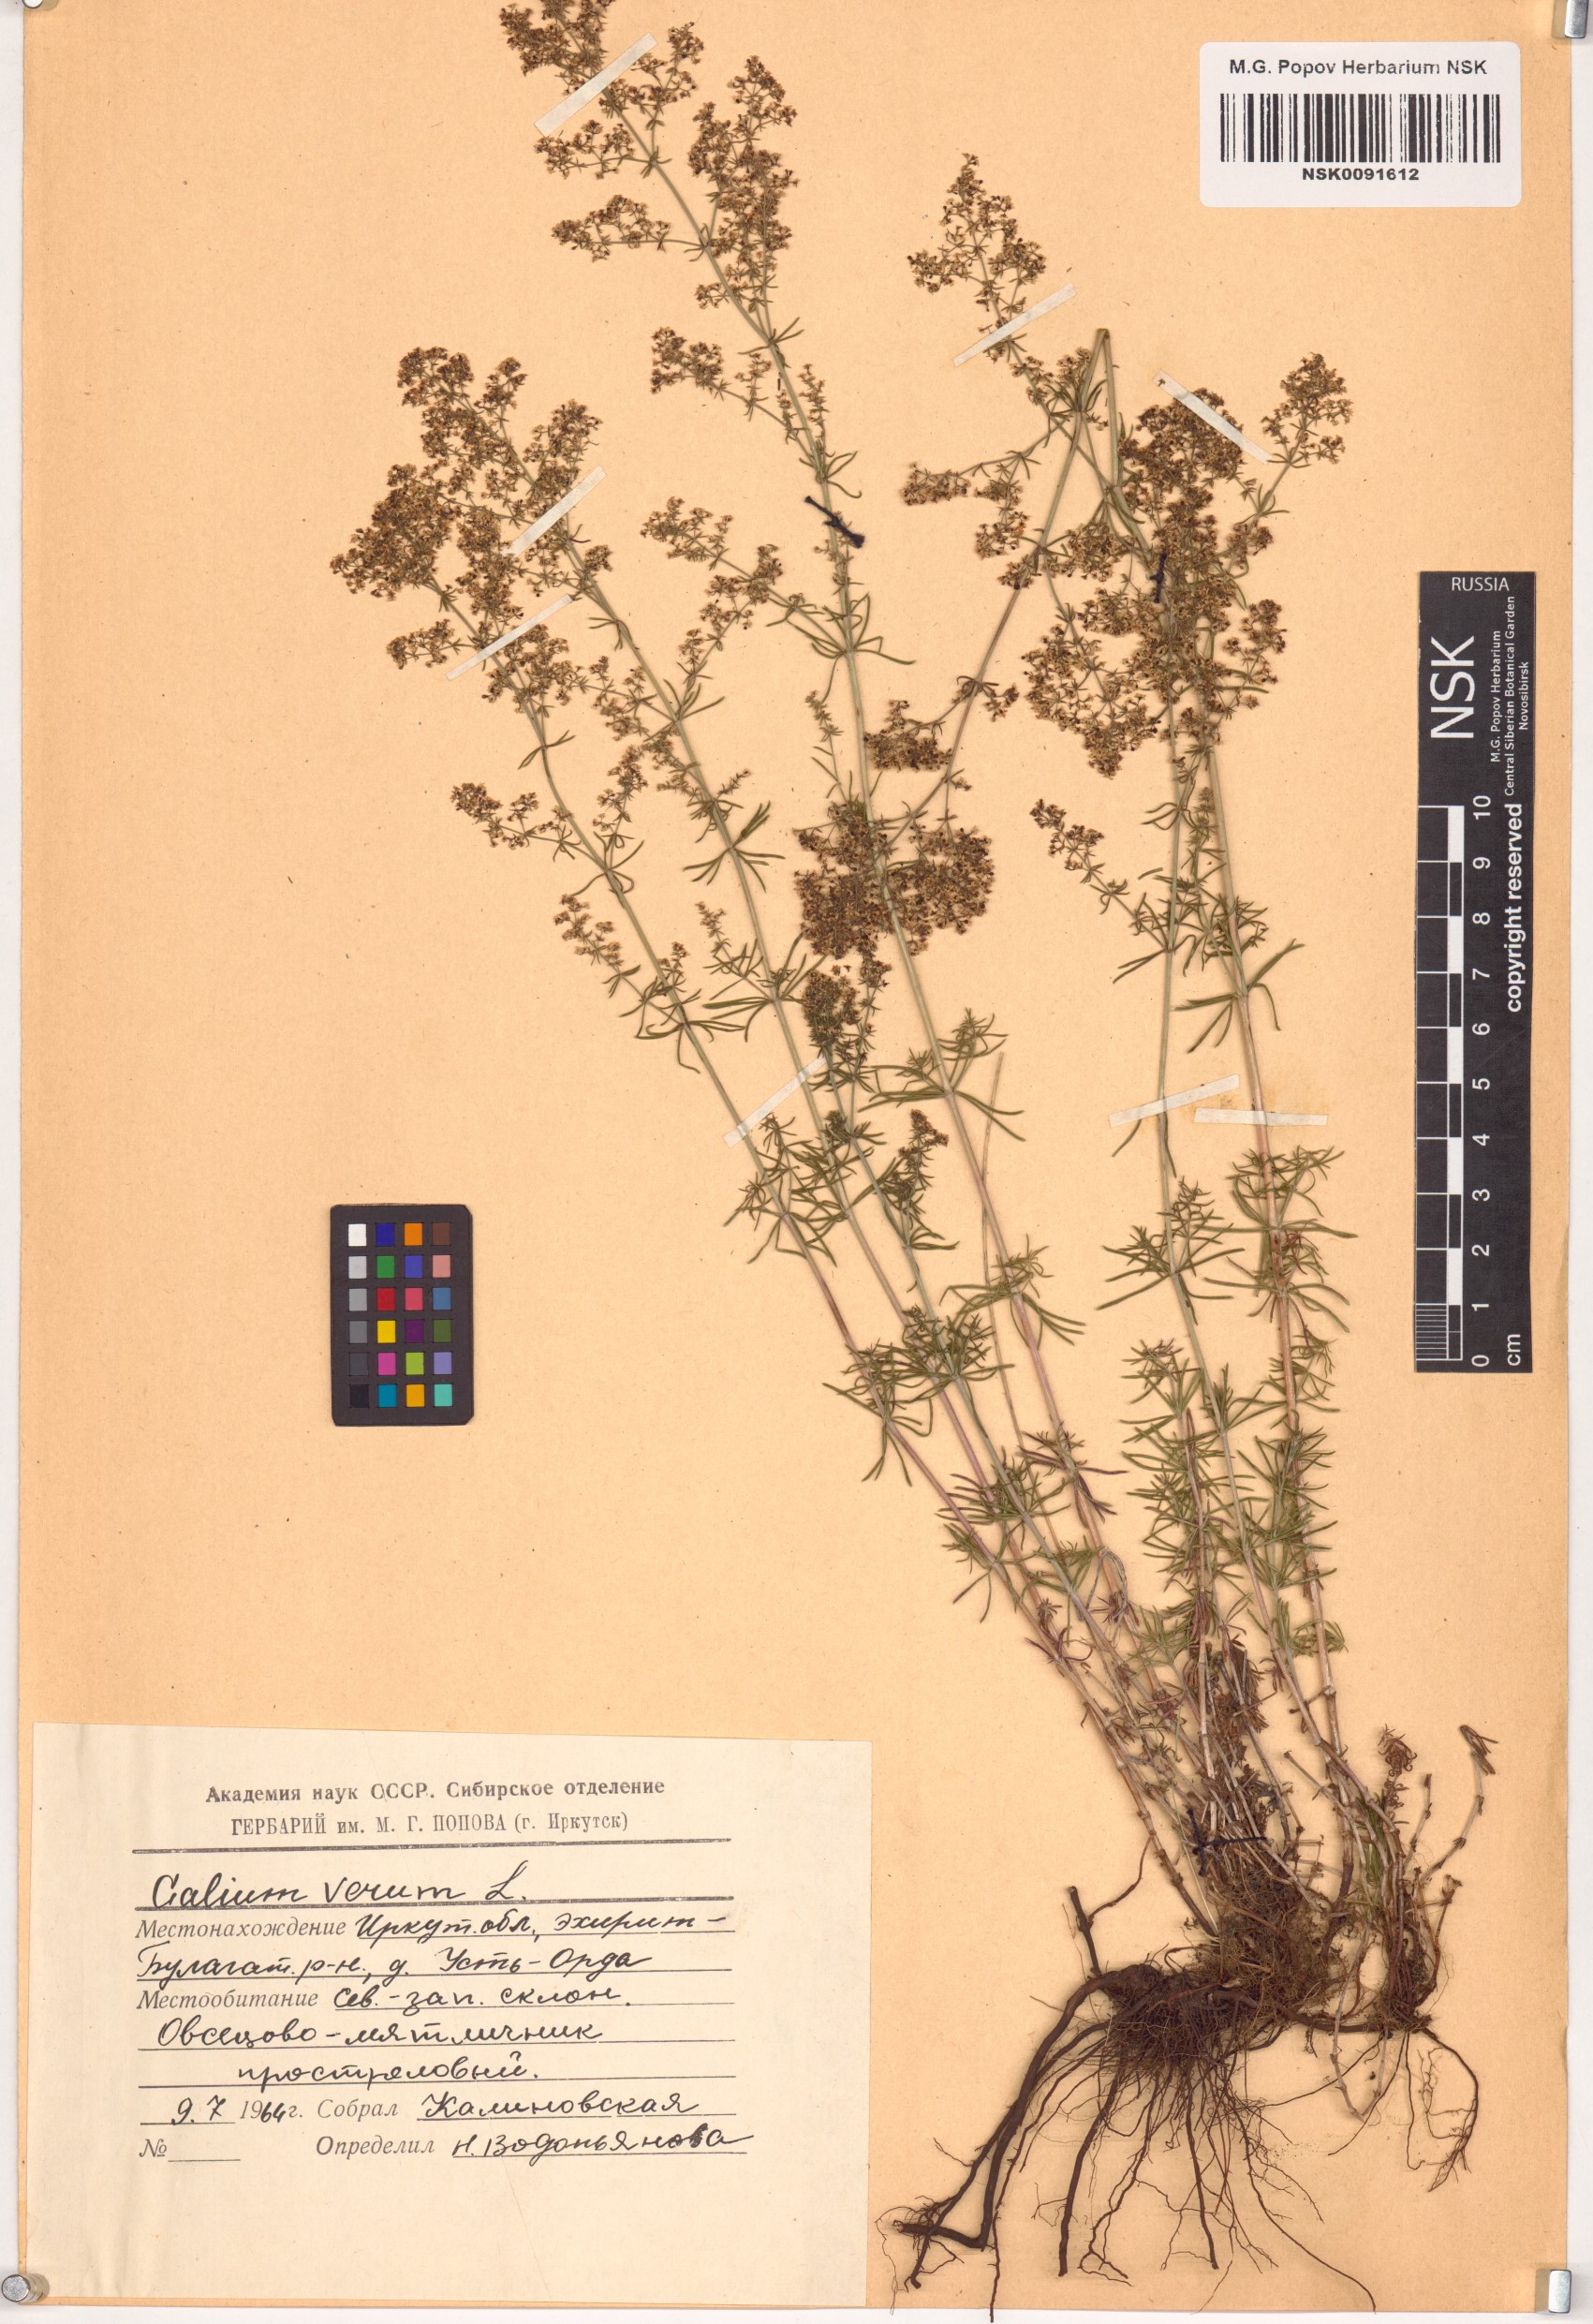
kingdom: Plantae
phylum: Tracheophyta
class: Magnoliopsida
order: Gentianales
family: Rubiaceae
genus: Galium
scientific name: Galium verum
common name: Lady's bedstraw
